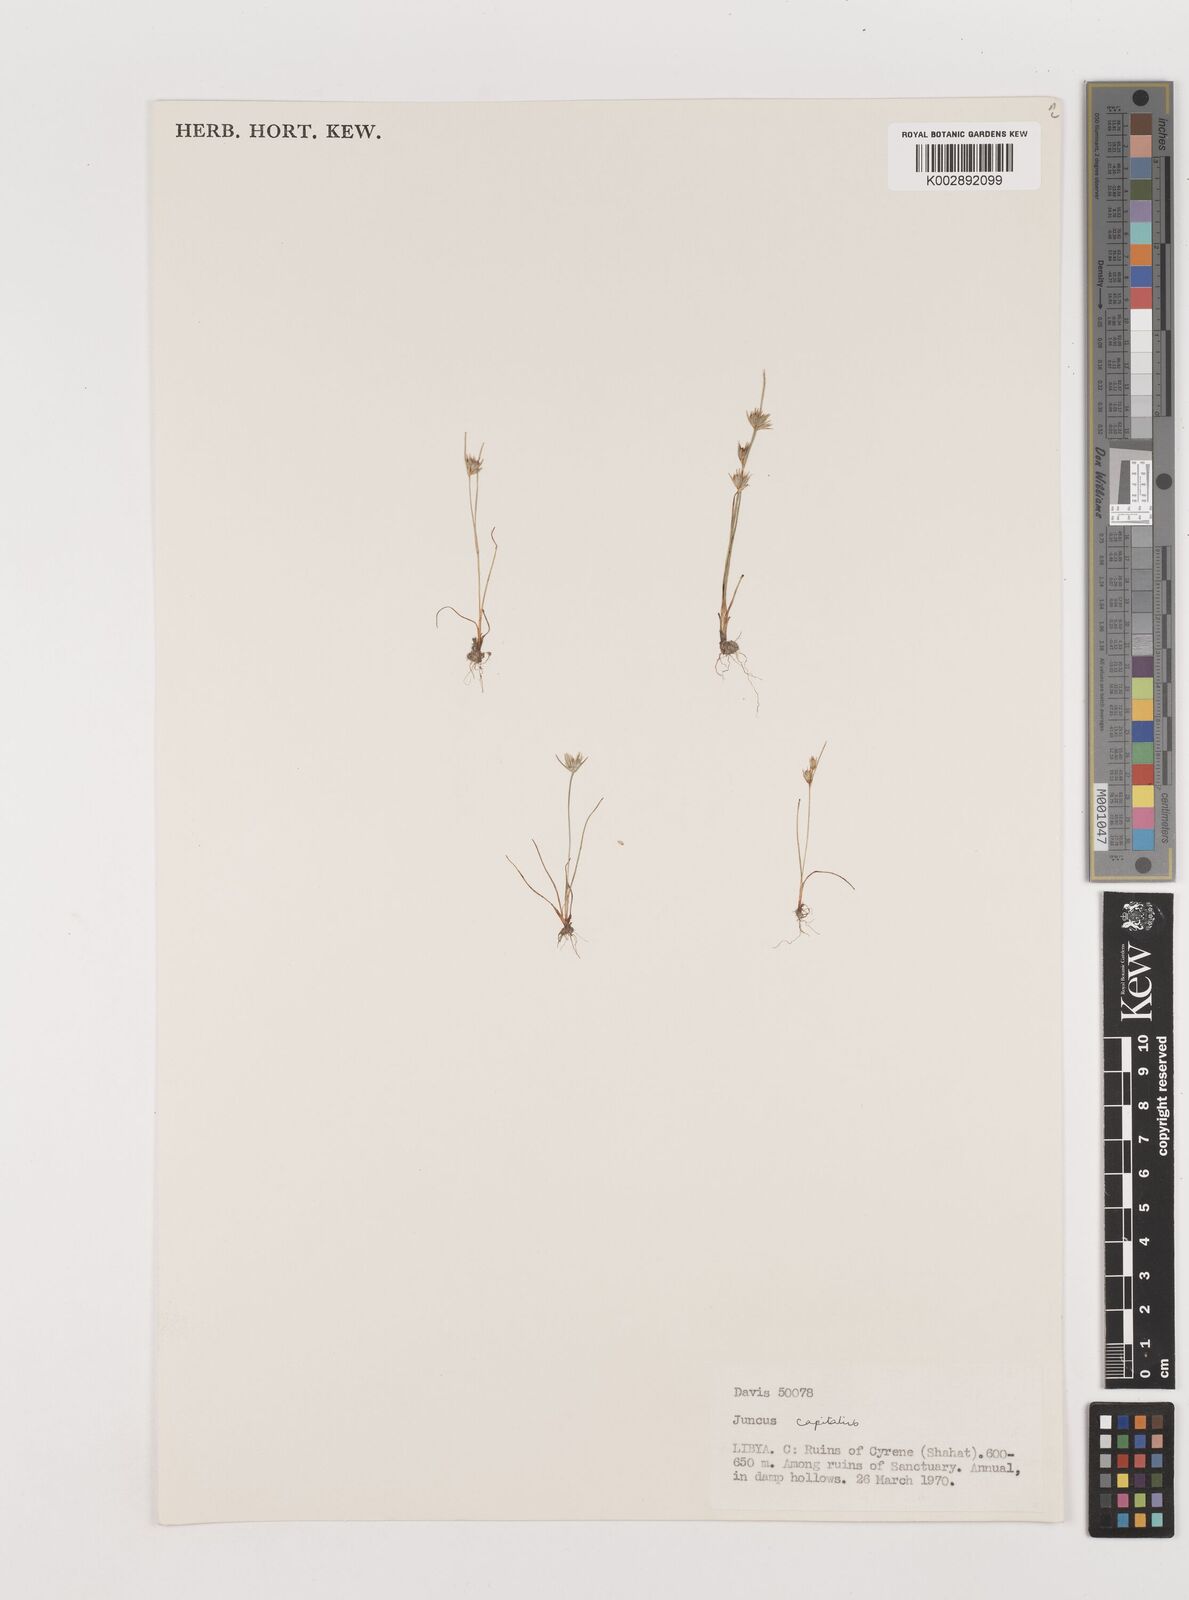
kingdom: Plantae
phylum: Tracheophyta
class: Liliopsida
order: Poales
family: Juncaceae
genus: Juncus
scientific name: Juncus capitatus
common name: Dwarf rush
